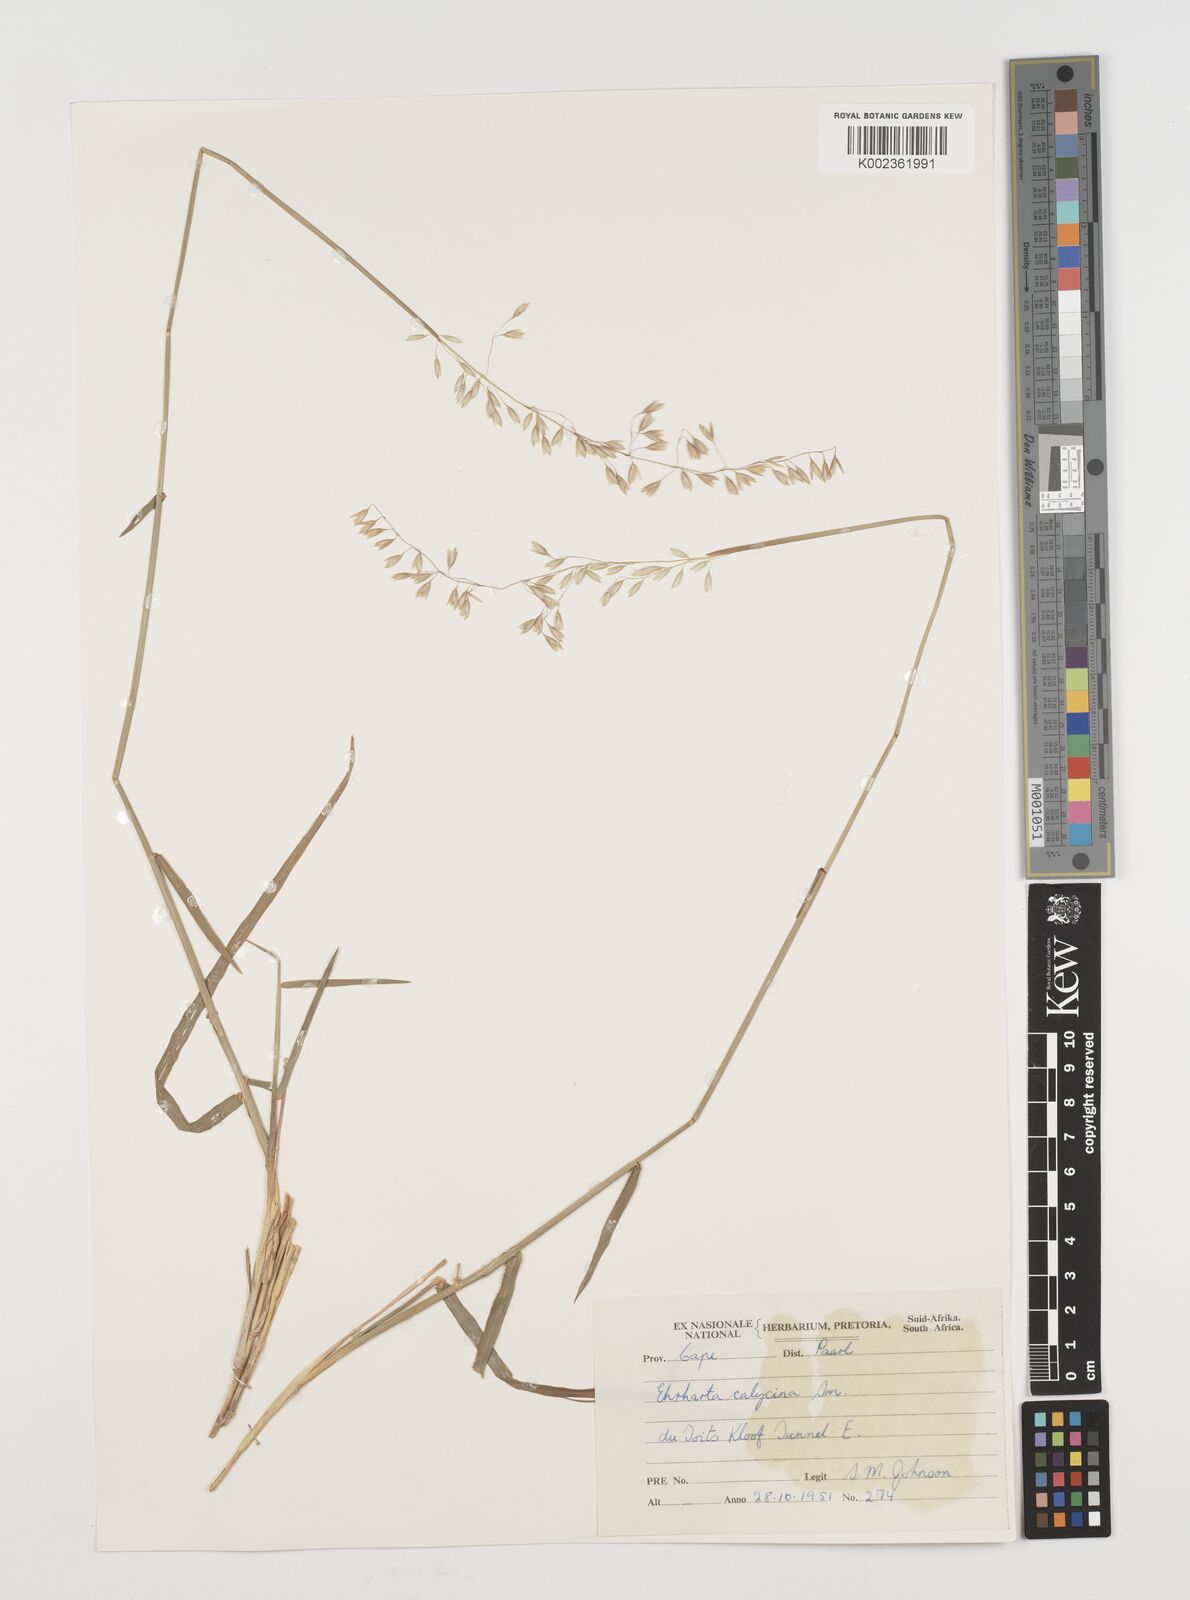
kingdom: Plantae
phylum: Tracheophyta
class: Liliopsida
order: Poales
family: Poaceae
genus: Ehrharta
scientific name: Ehrharta calycina
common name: Perennial veldtgrass
